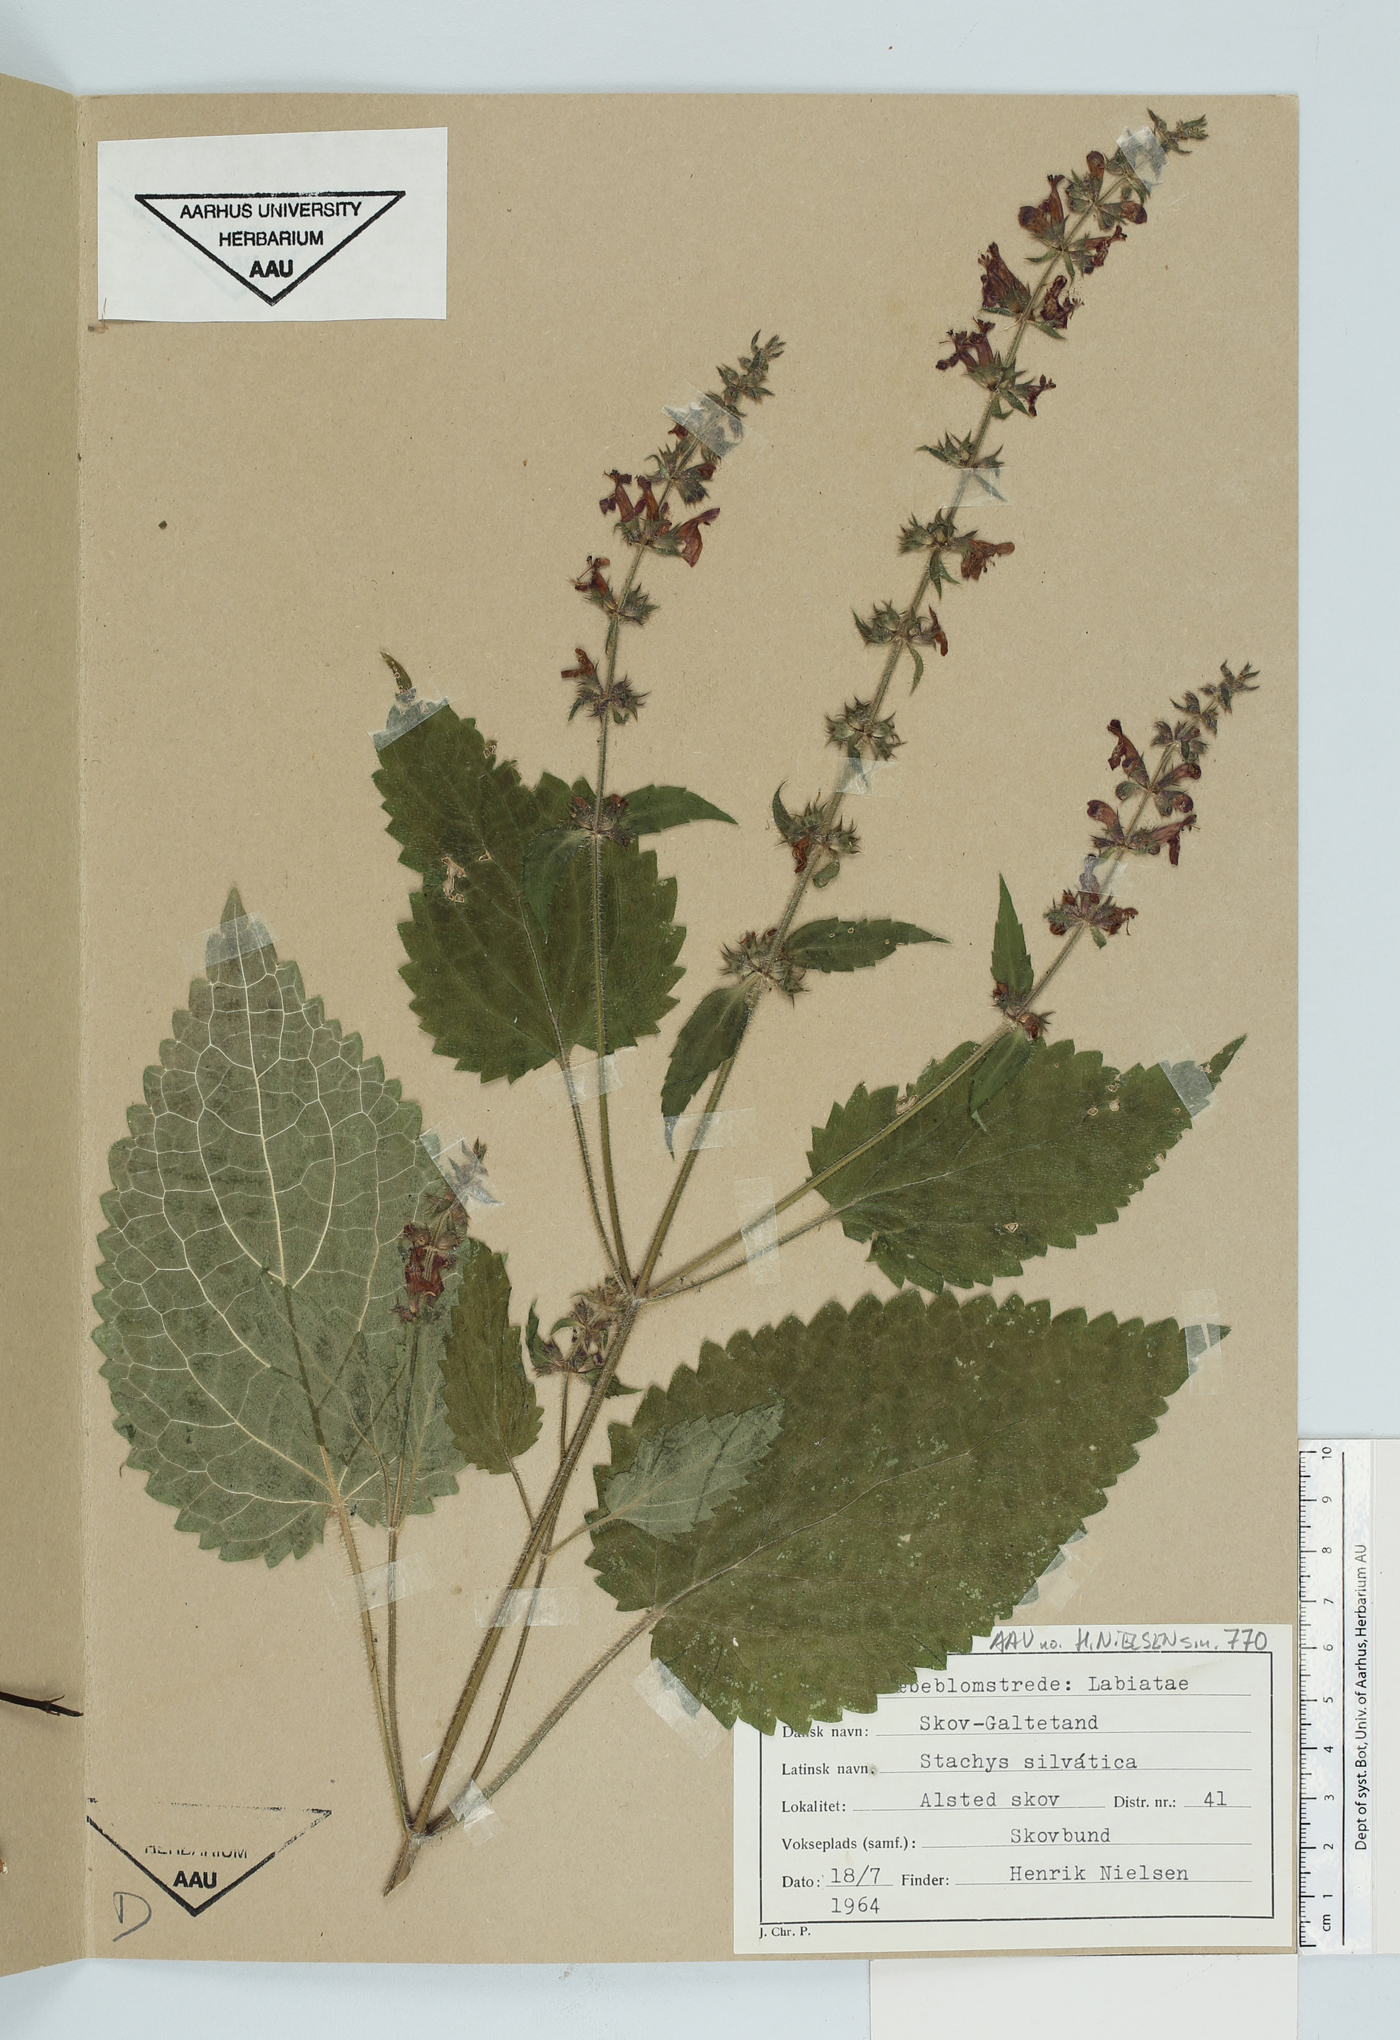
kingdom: Plantae
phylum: Tracheophyta
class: Magnoliopsida
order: Lamiales
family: Lamiaceae
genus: Stachys
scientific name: Stachys sylvatica
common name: Hedge woundwort
